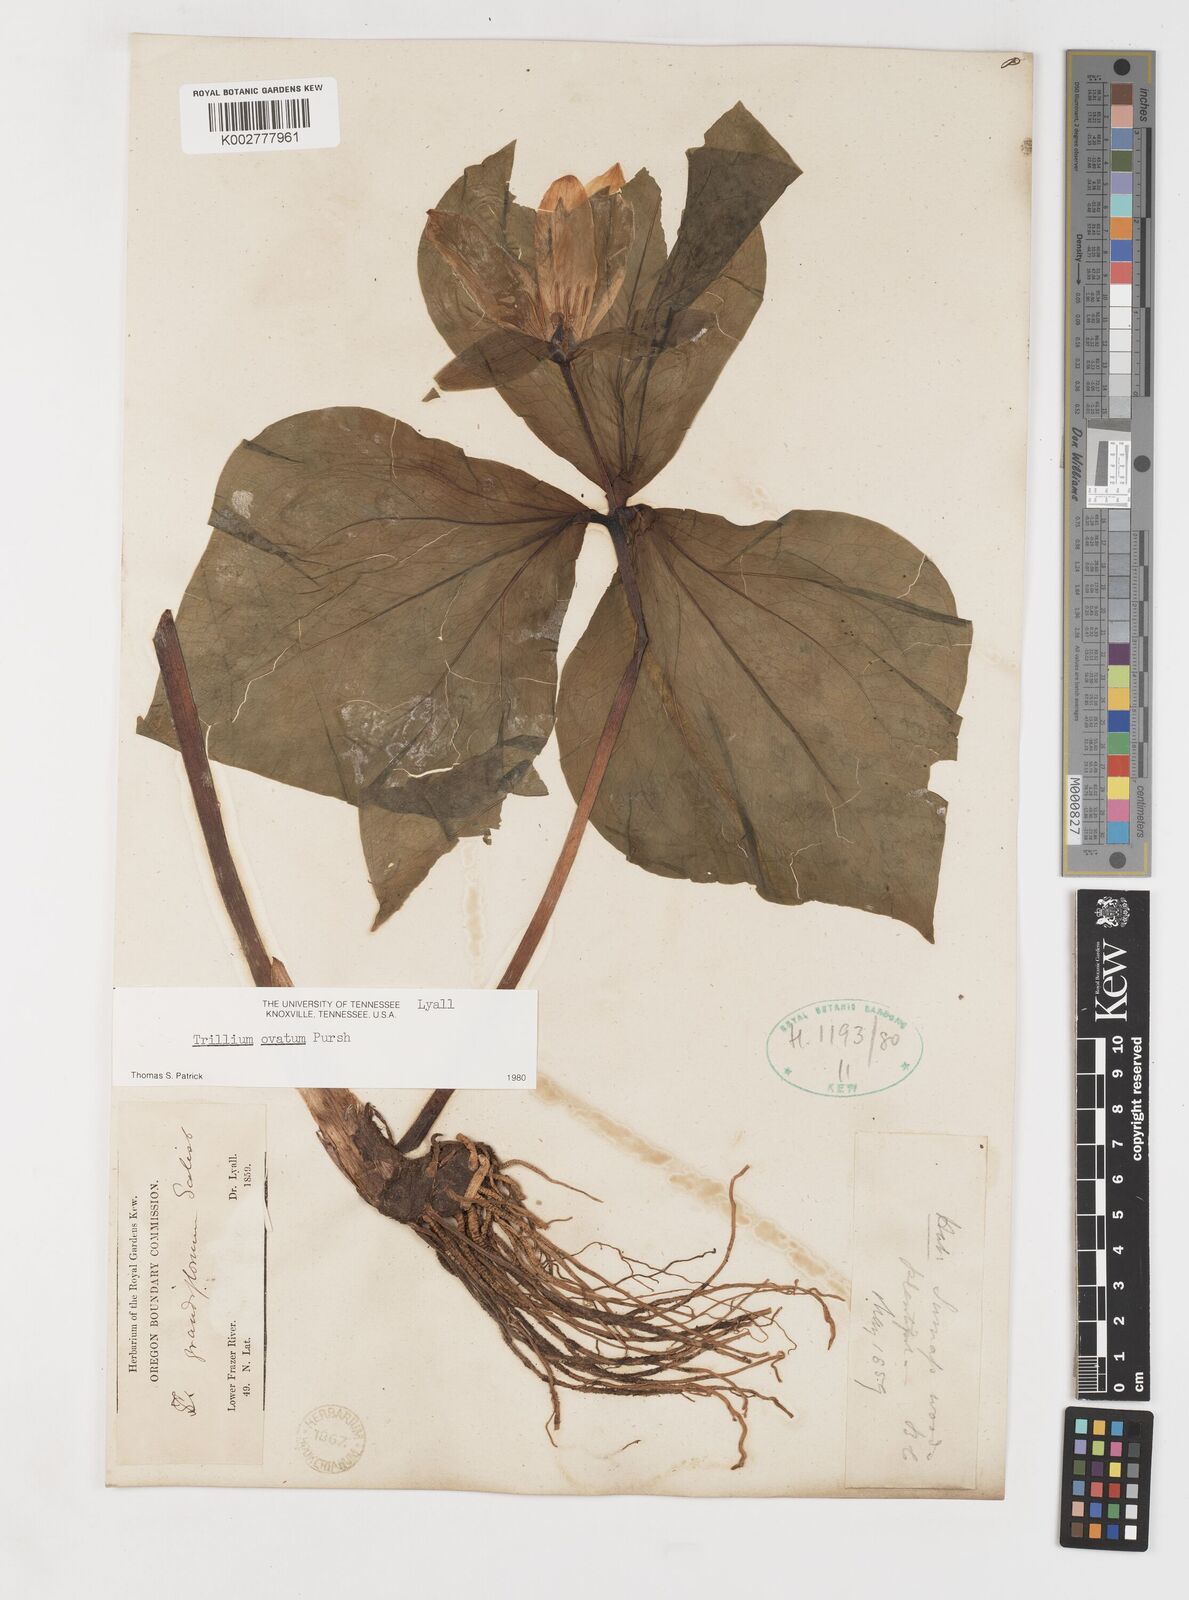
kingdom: Plantae
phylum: Tracheophyta
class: Liliopsida
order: Liliales
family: Melanthiaceae
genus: Trillium
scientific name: Trillium ovatum
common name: Pacific trillium
